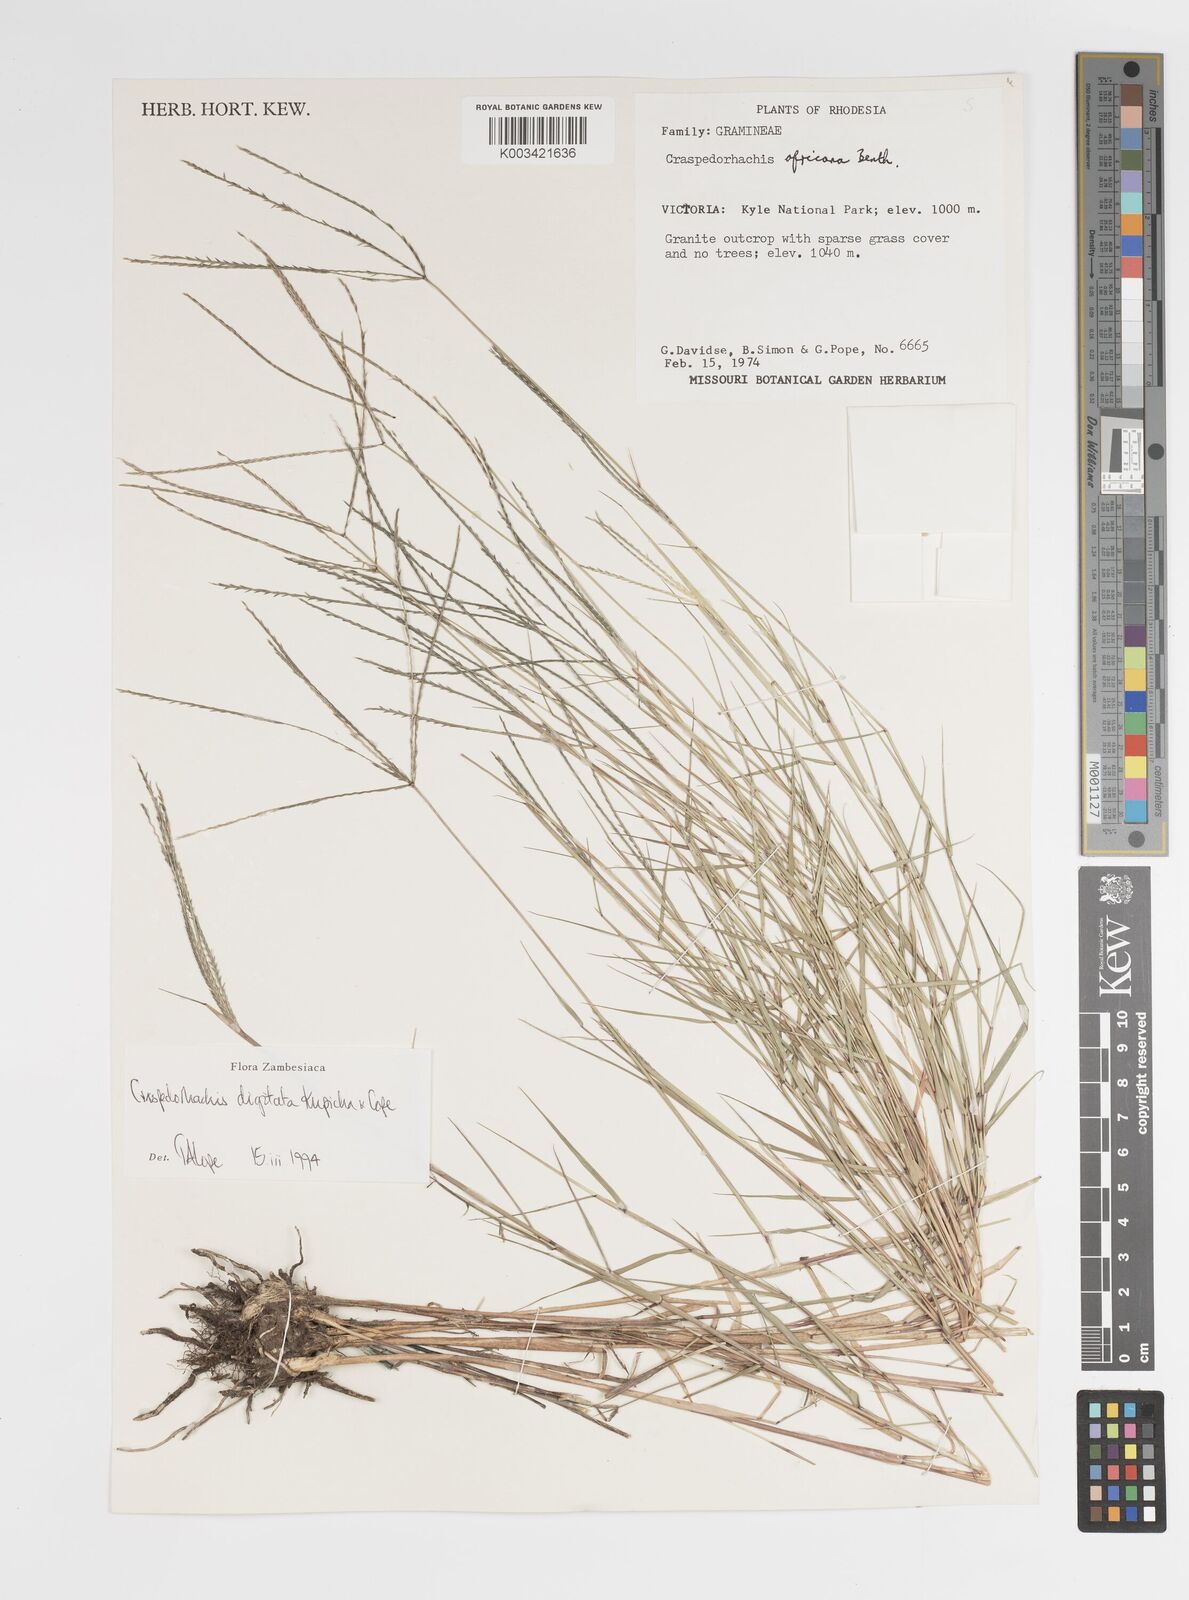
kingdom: Plantae
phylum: Tracheophyta
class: Liliopsida
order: Poales
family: Poaceae
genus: Craspedorhachis
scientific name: Craspedorhachis digitata
